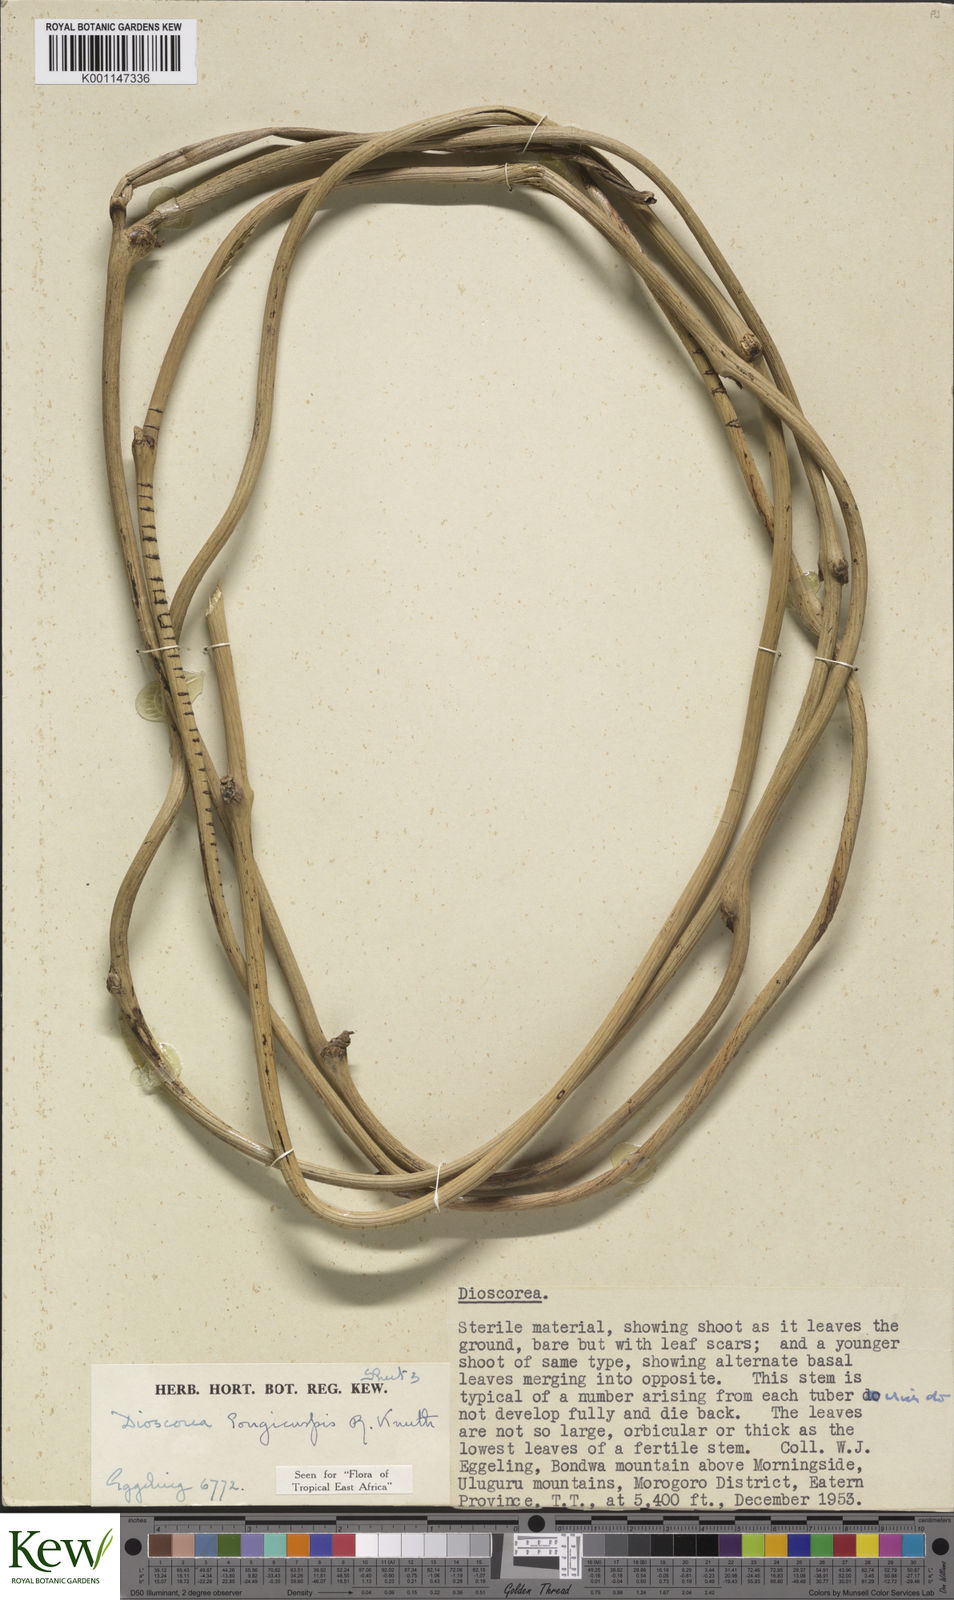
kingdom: Plantae
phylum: Tracheophyta
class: Liliopsida
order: Dioscoreales
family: Dioscoreaceae
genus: Dioscorea
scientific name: Dioscorea longicuspis
